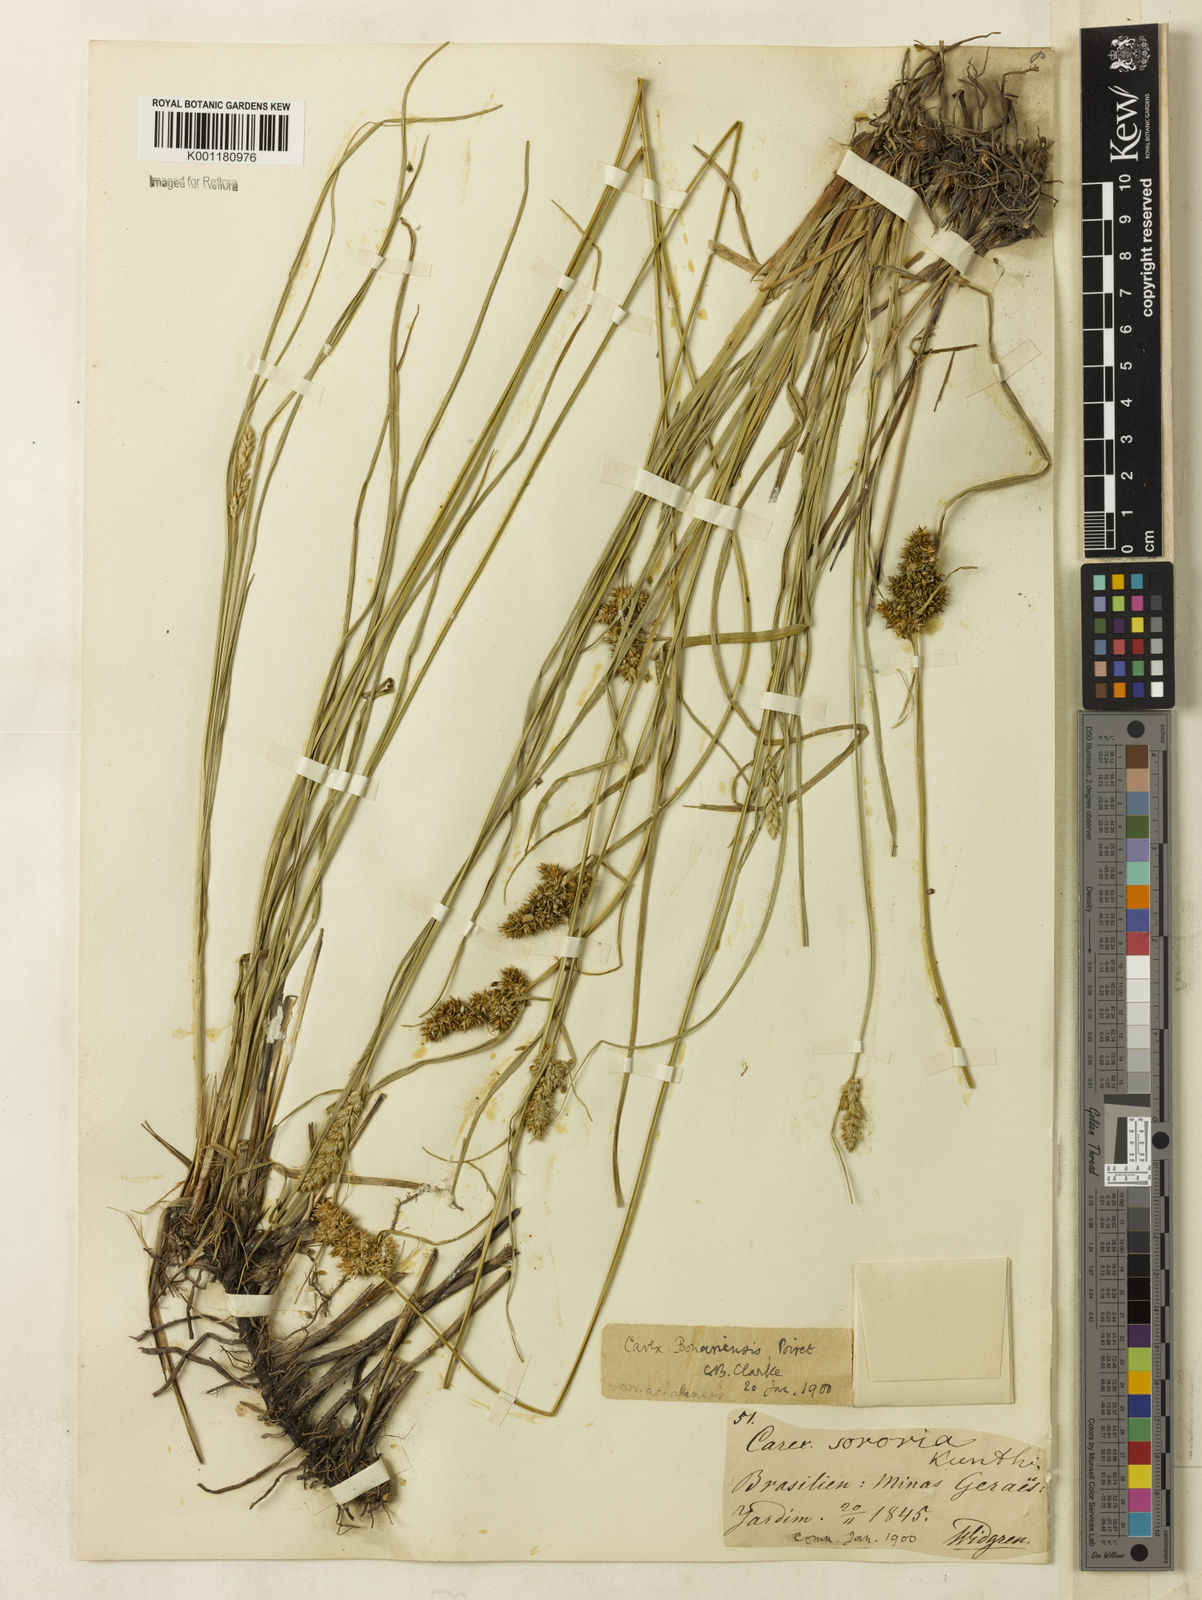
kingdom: Plantae
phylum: Tracheophyta
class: Liliopsida
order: Poales
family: Cyperaceae
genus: Carex
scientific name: Carex bonariensis
